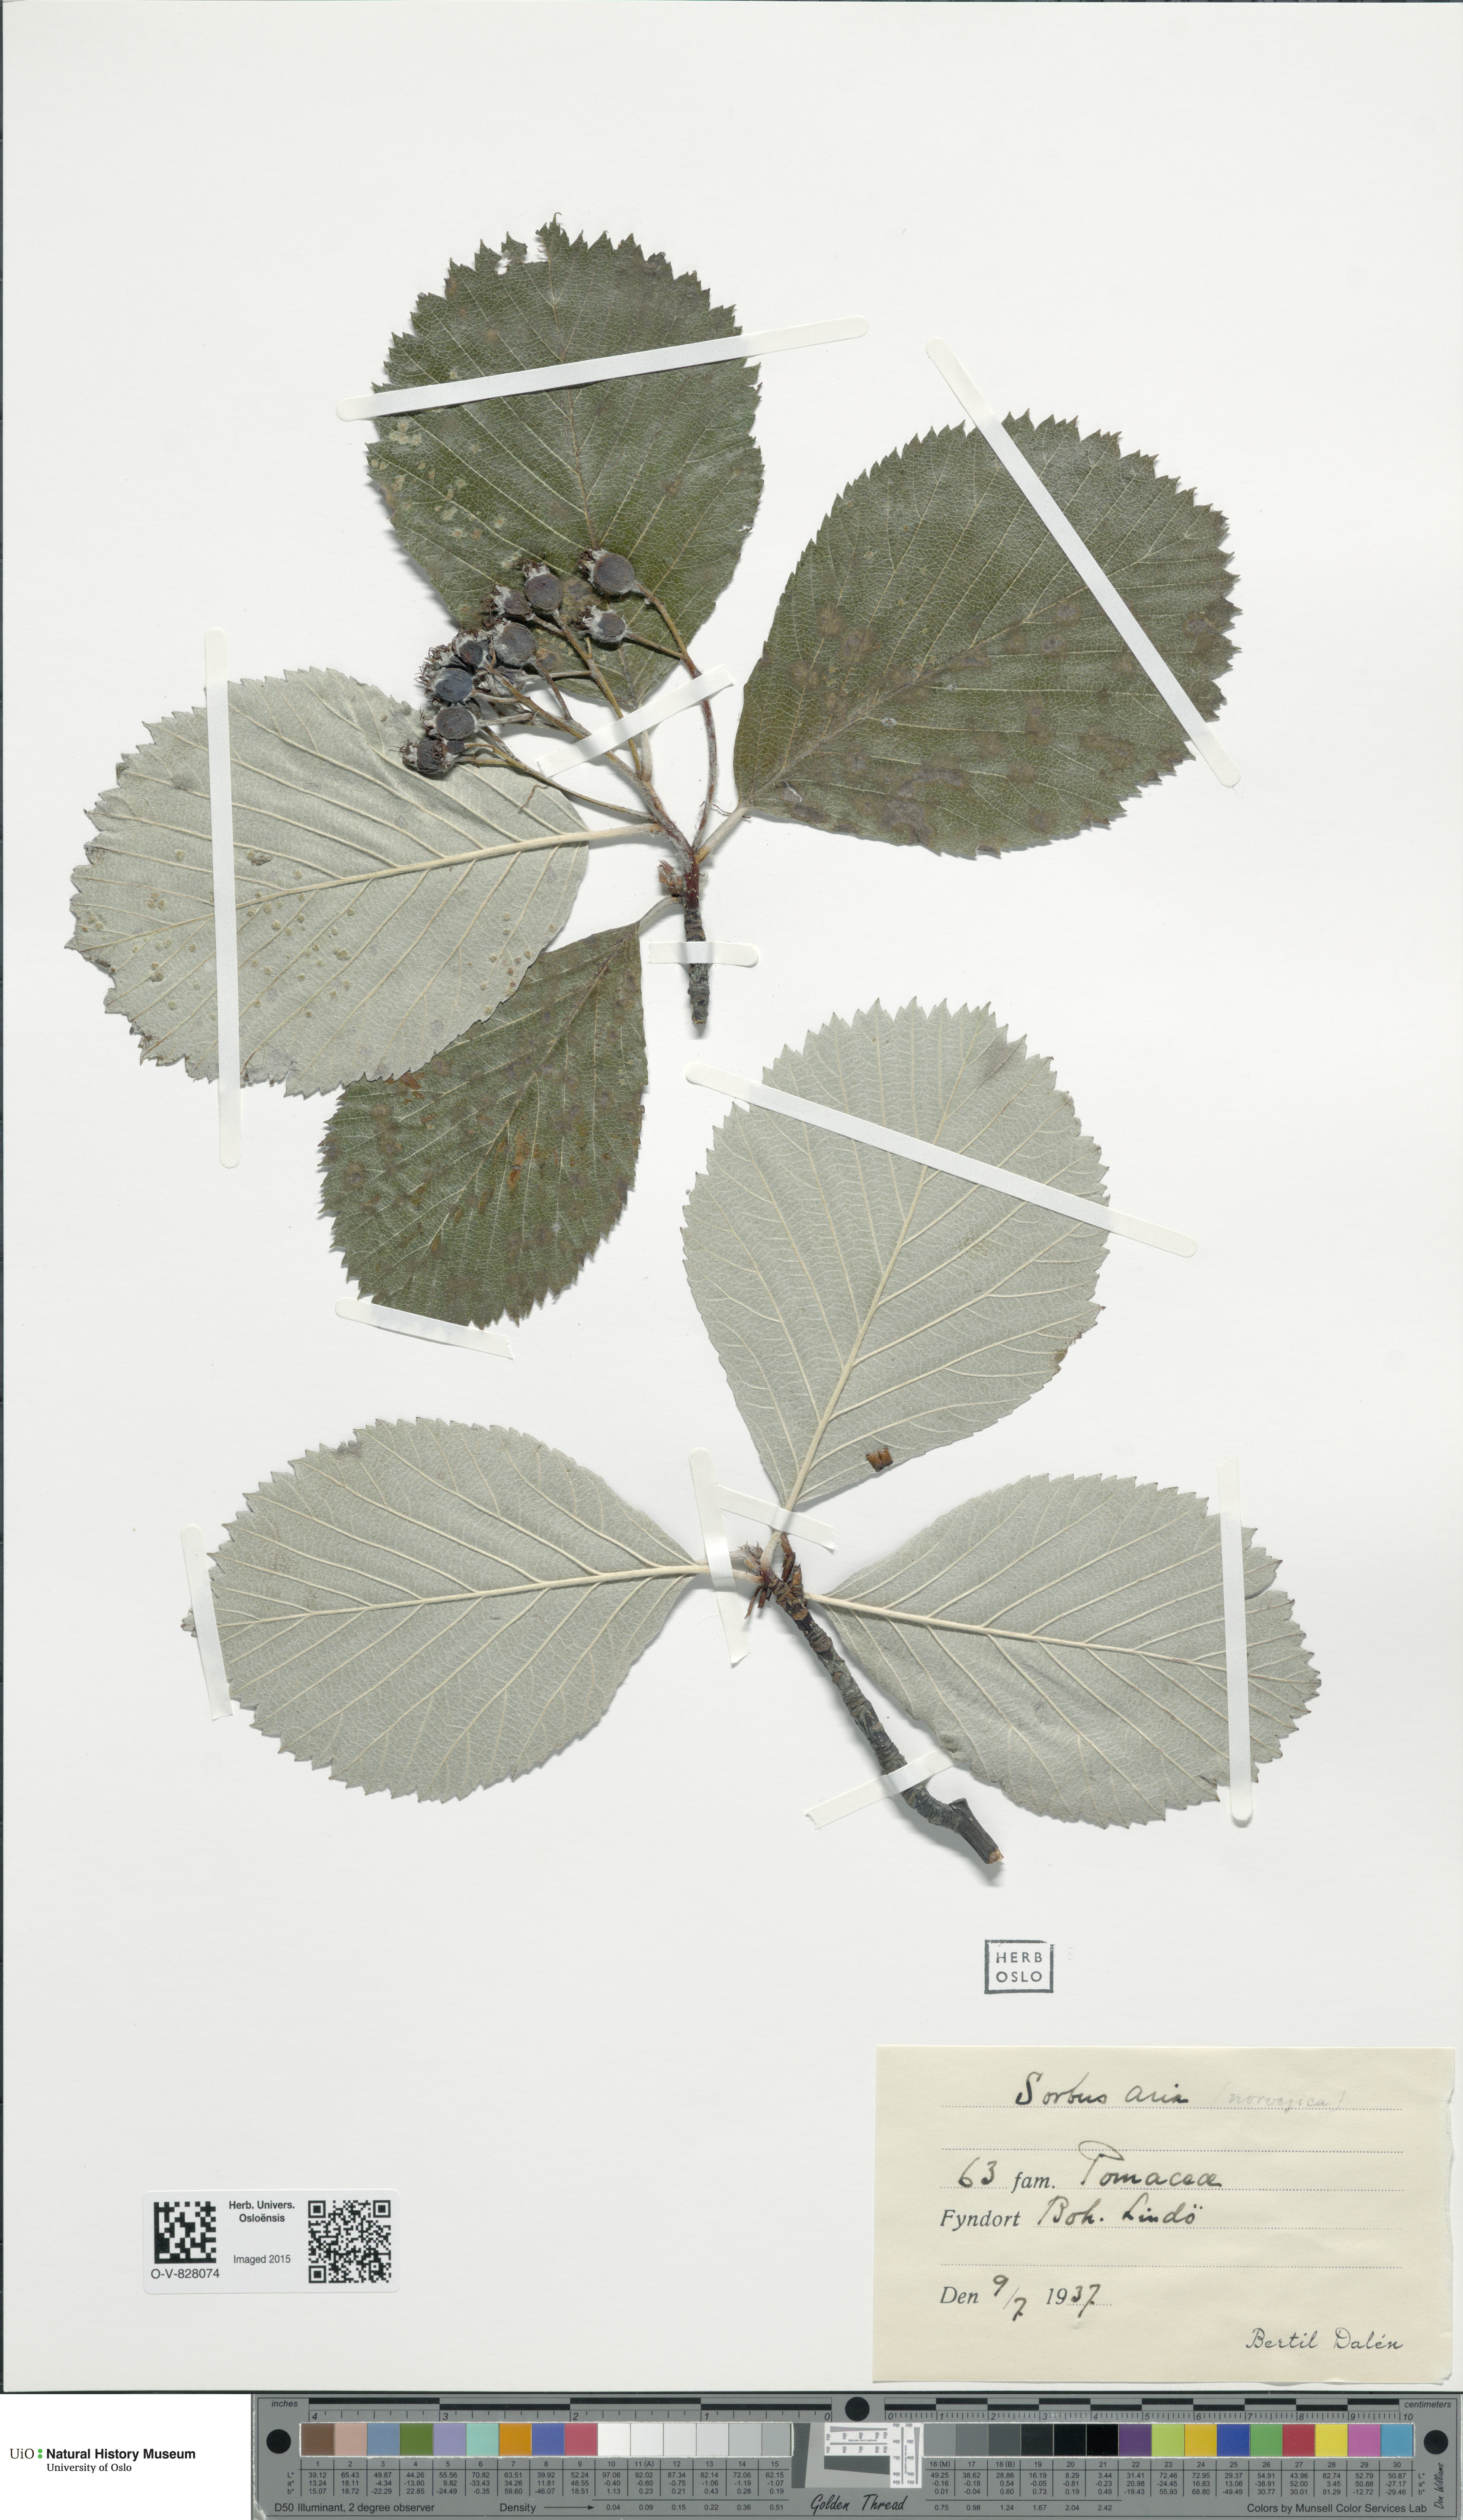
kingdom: Plantae
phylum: Tracheophyta
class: Magnoliopsida
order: Rosales
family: Rosaceae
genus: Aria
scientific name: Aria rupicola
